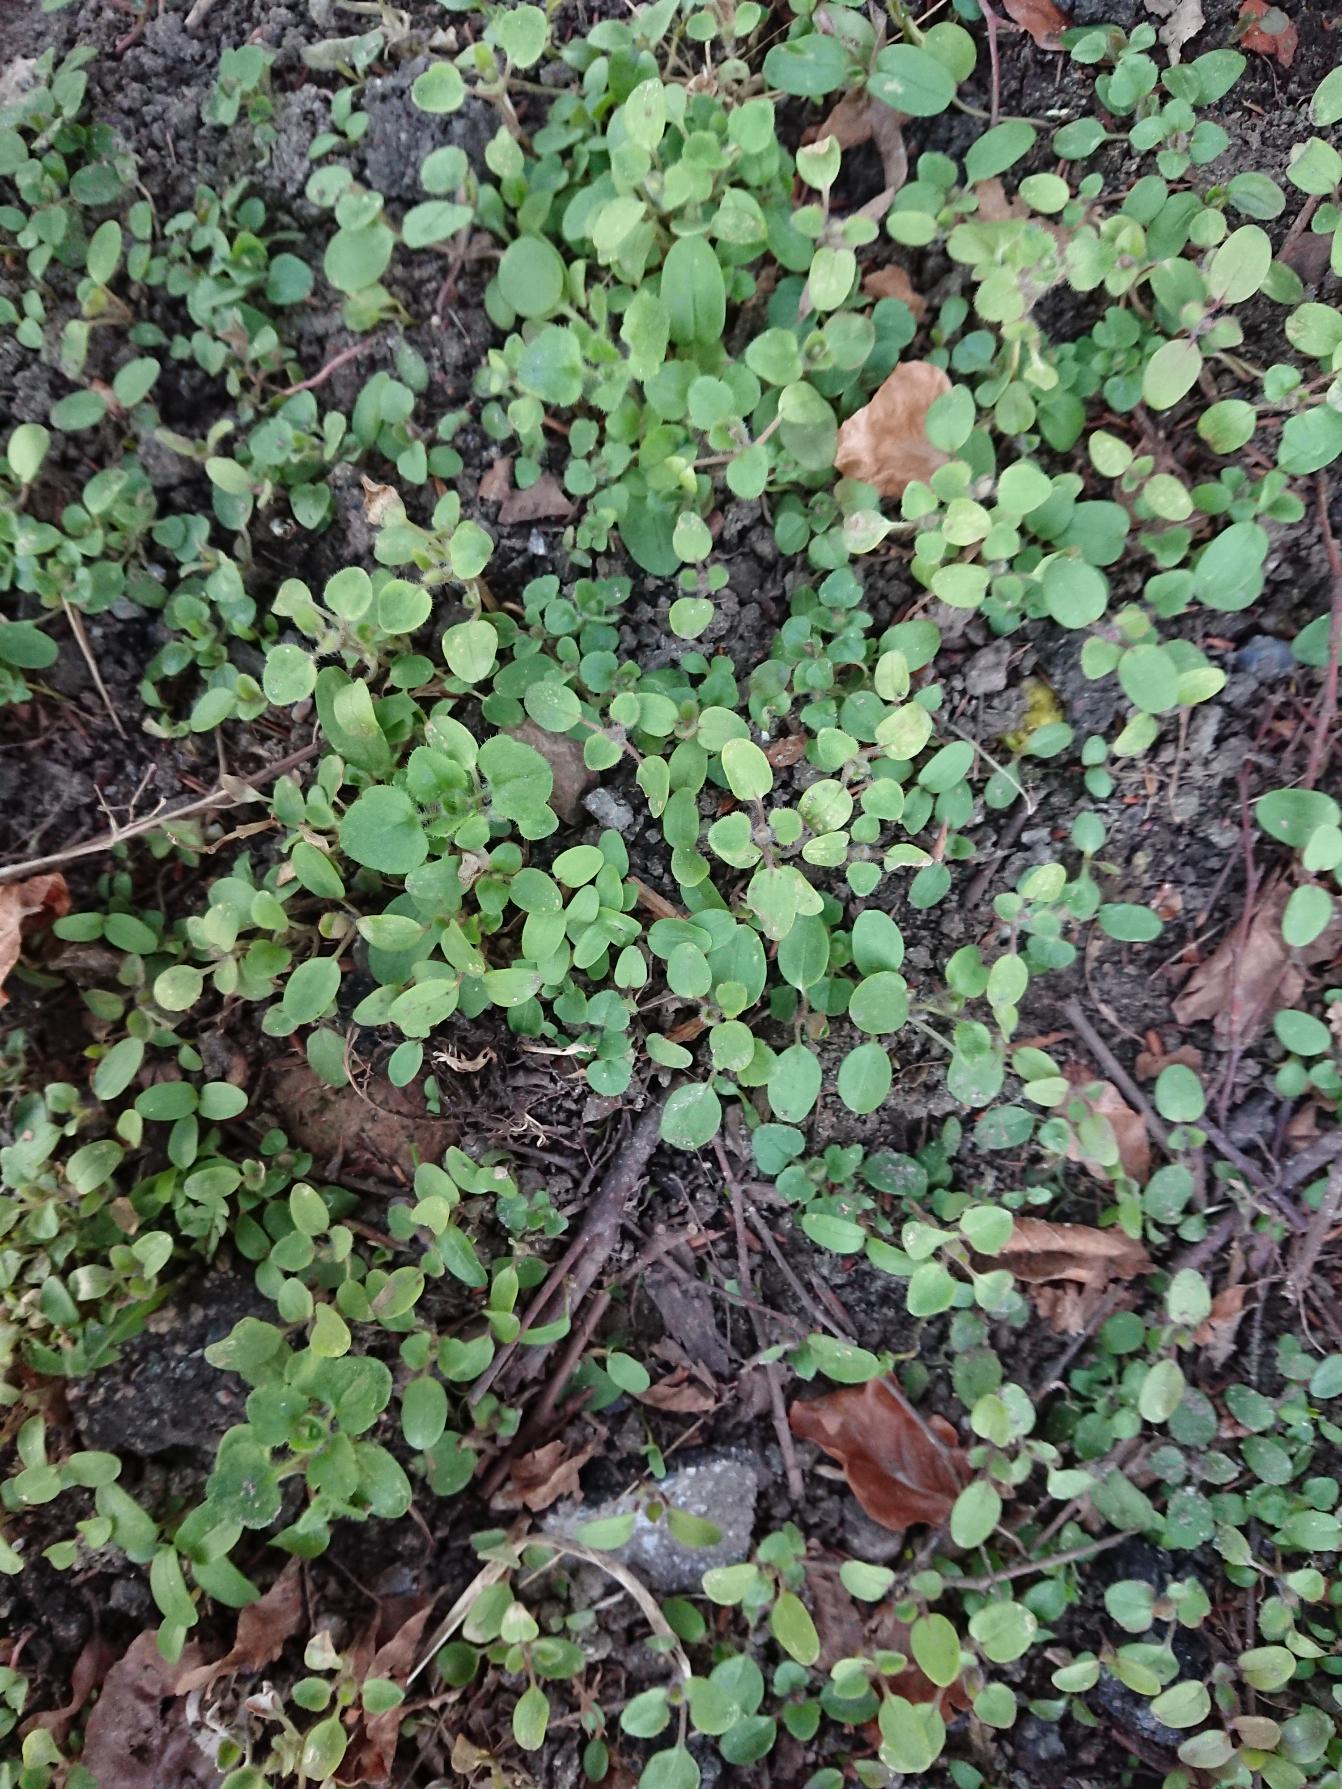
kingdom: Plantae
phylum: Tracheophyta
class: Magnoliopsida
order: Lamiales
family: Plantaginaceae
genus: Veronica
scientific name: Veronica hederifolia
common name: Vedbend-ærenpris
